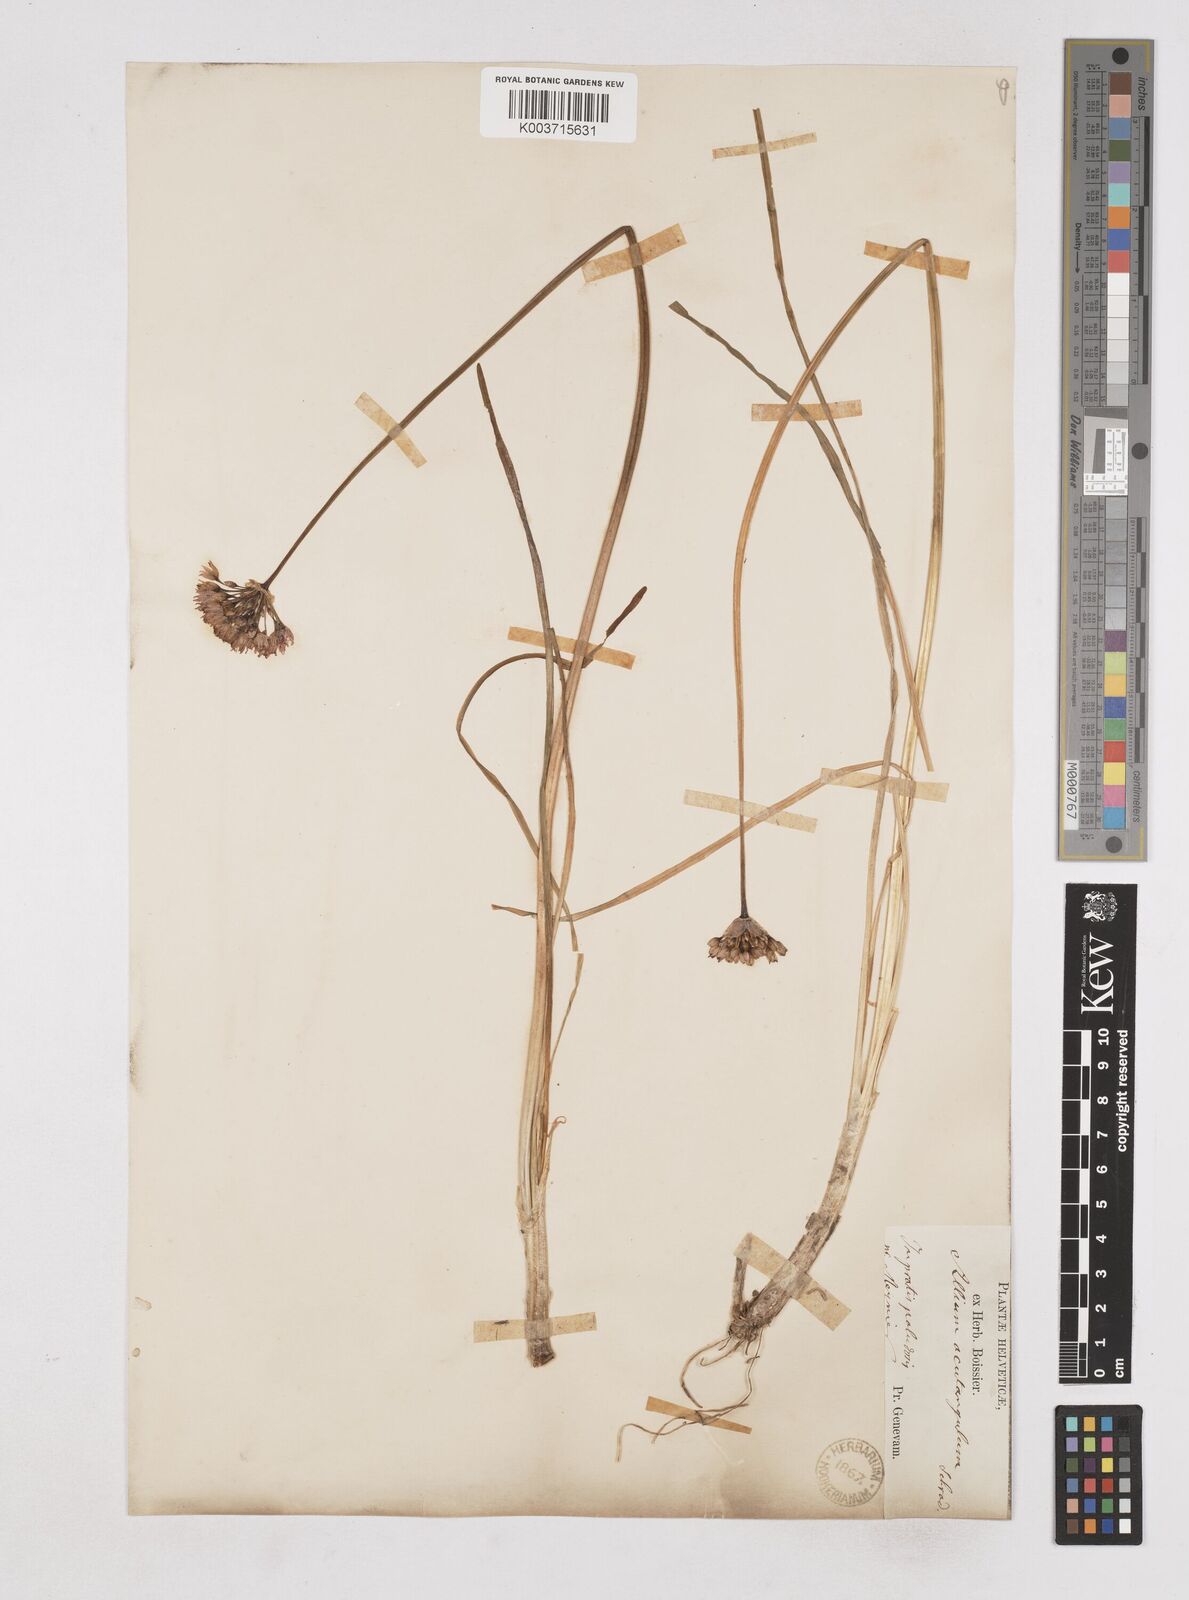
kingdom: Plantae
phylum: Tracheophyta
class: Liliopsida
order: Asparagales
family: Amaryllidaceae
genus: Allium
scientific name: Allium angulosum
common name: Mouse garlic
